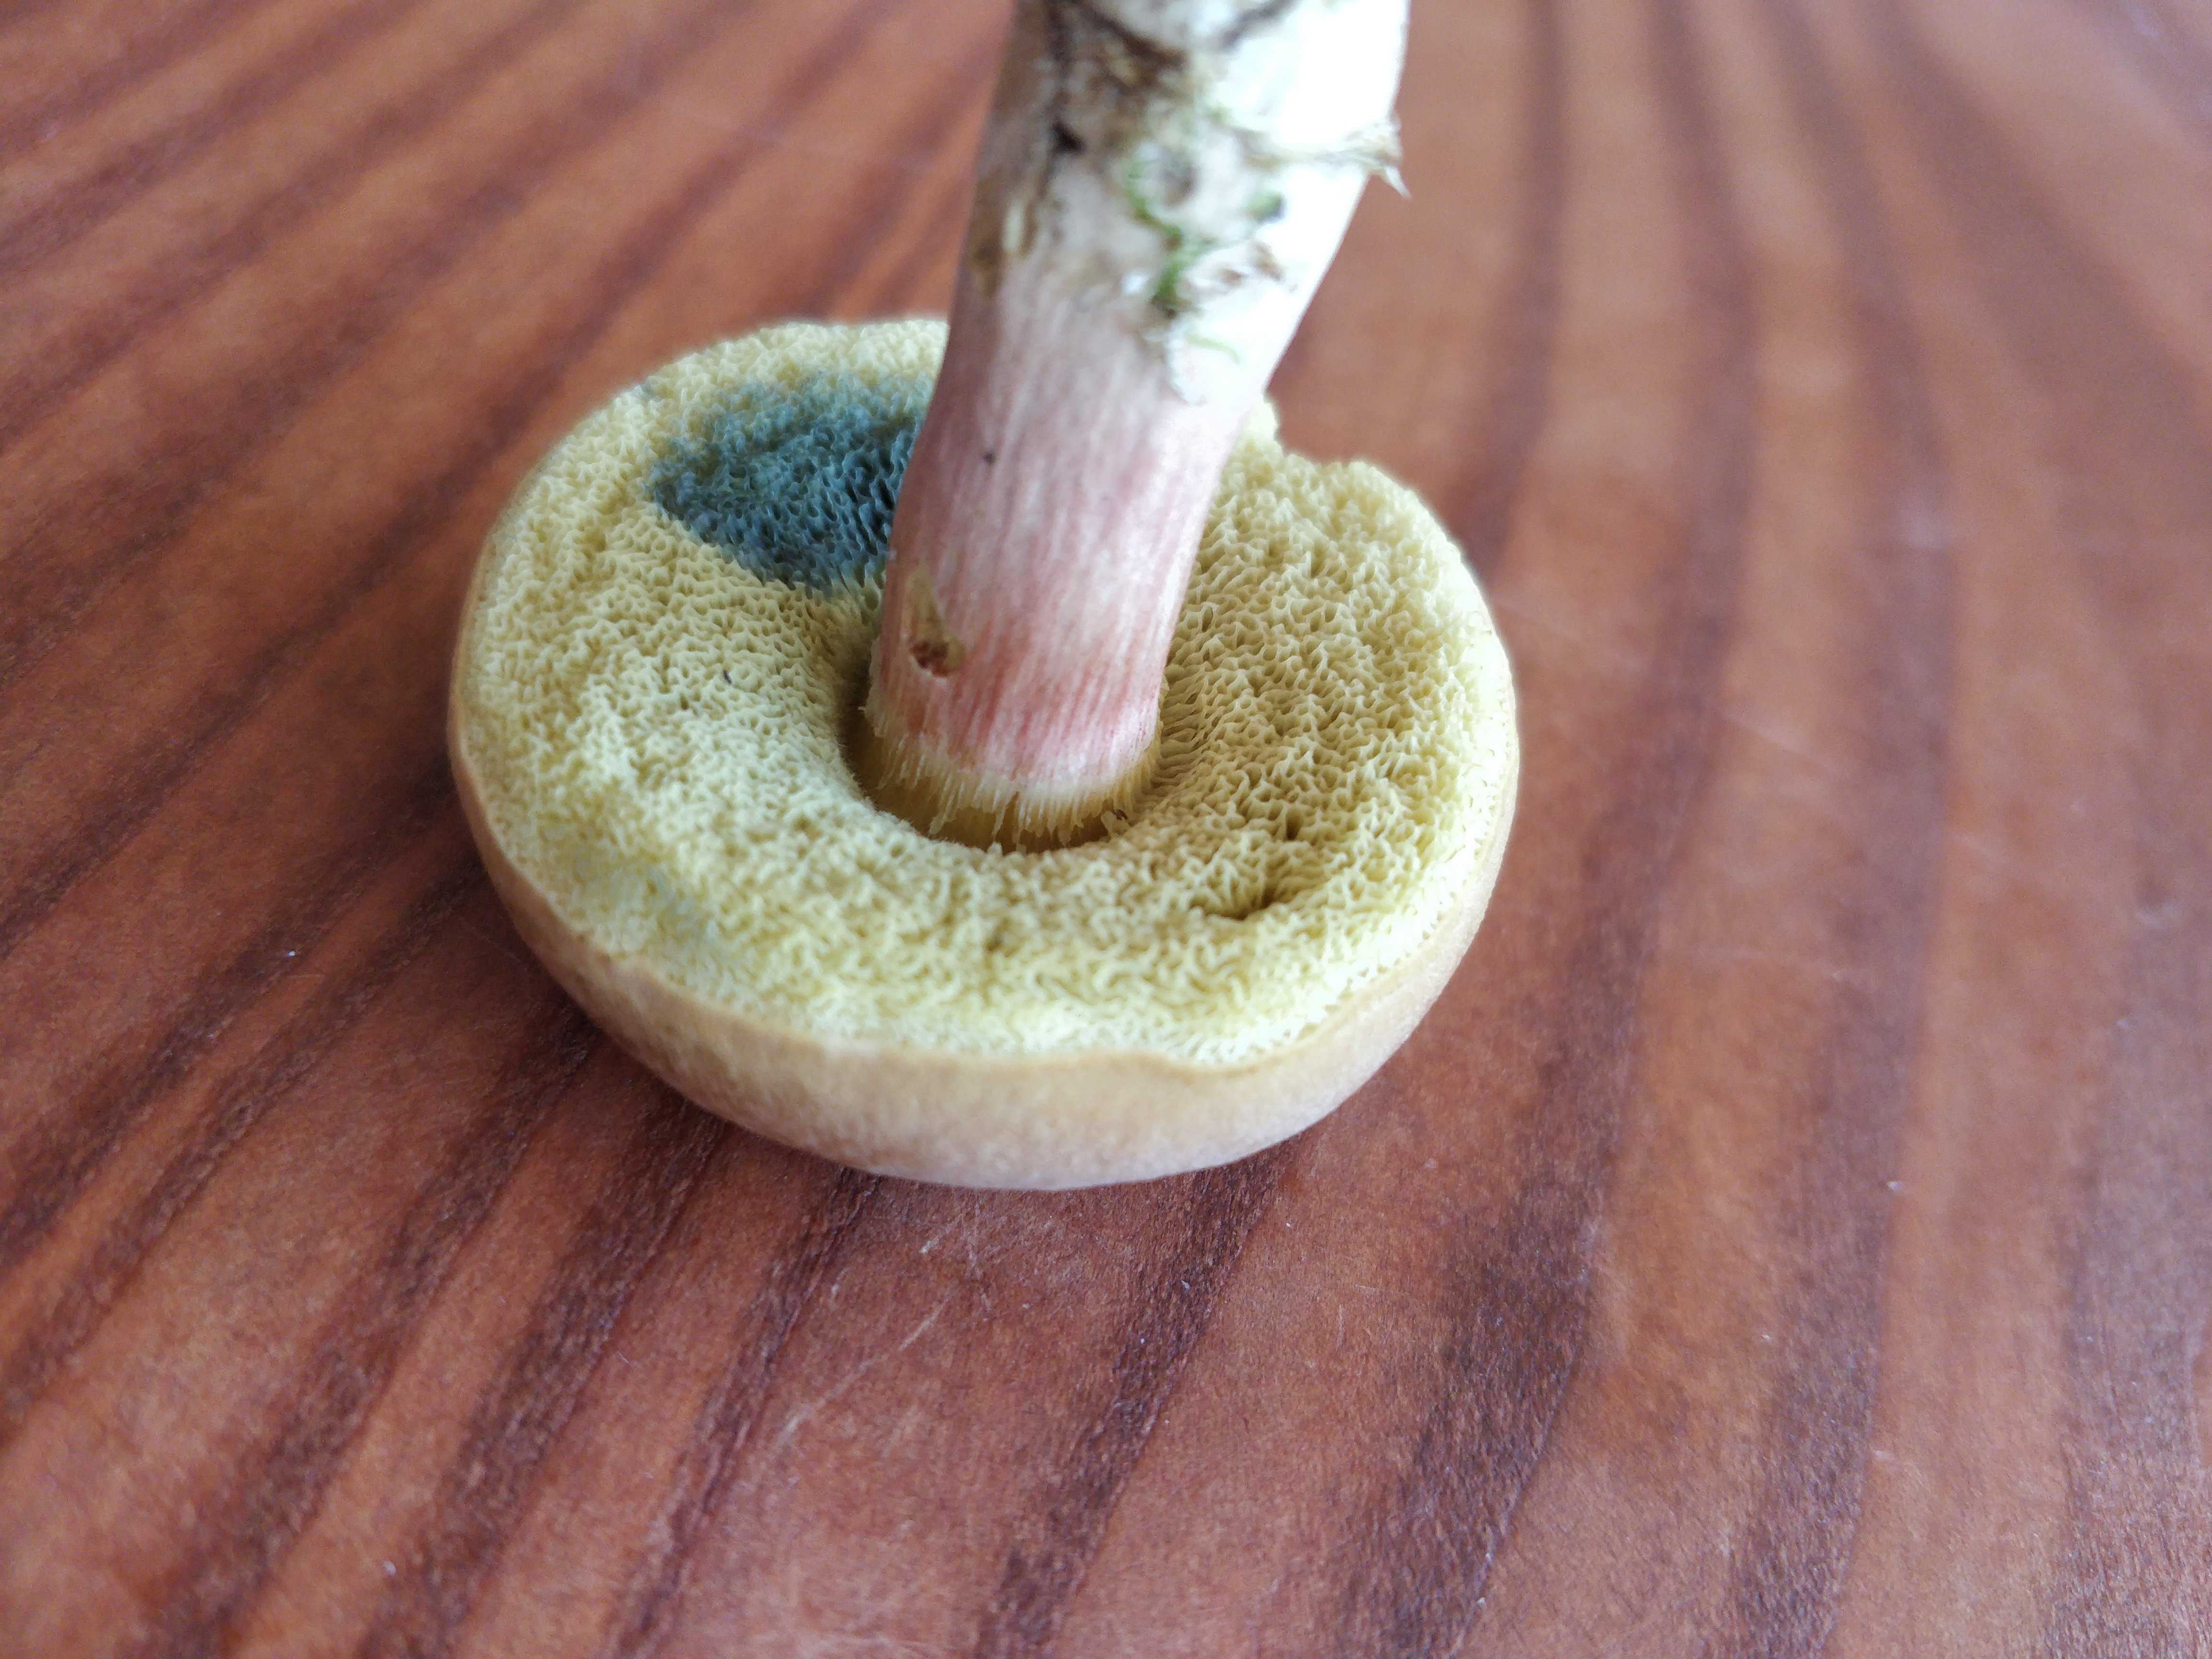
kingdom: Fungi
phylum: Basidiomycota
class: Agaricomycetes
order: Boletales
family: Boletaceae
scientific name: Boletaceae
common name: rørhatfamilien
